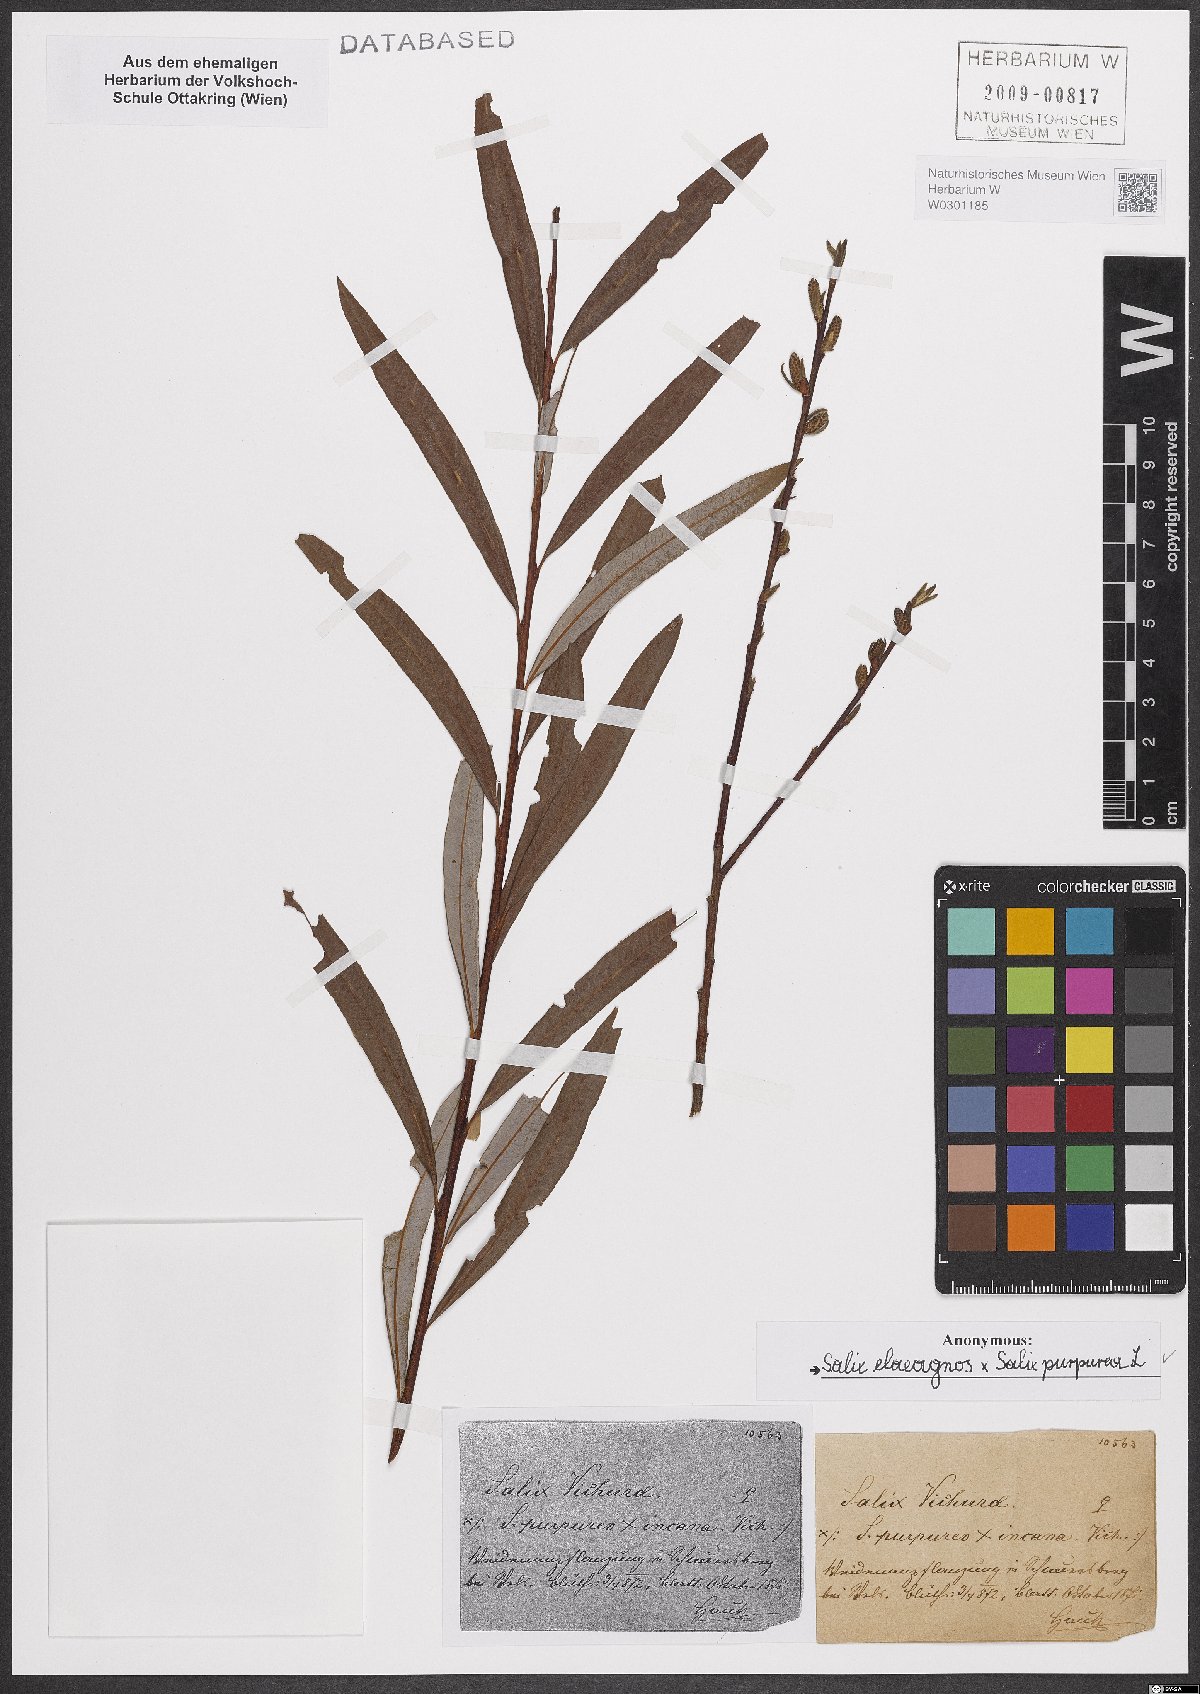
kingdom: Plantae
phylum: Tracheophyta
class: Magnoliopsida
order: Malpighiales
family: Salicaceae
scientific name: Salicaceae
